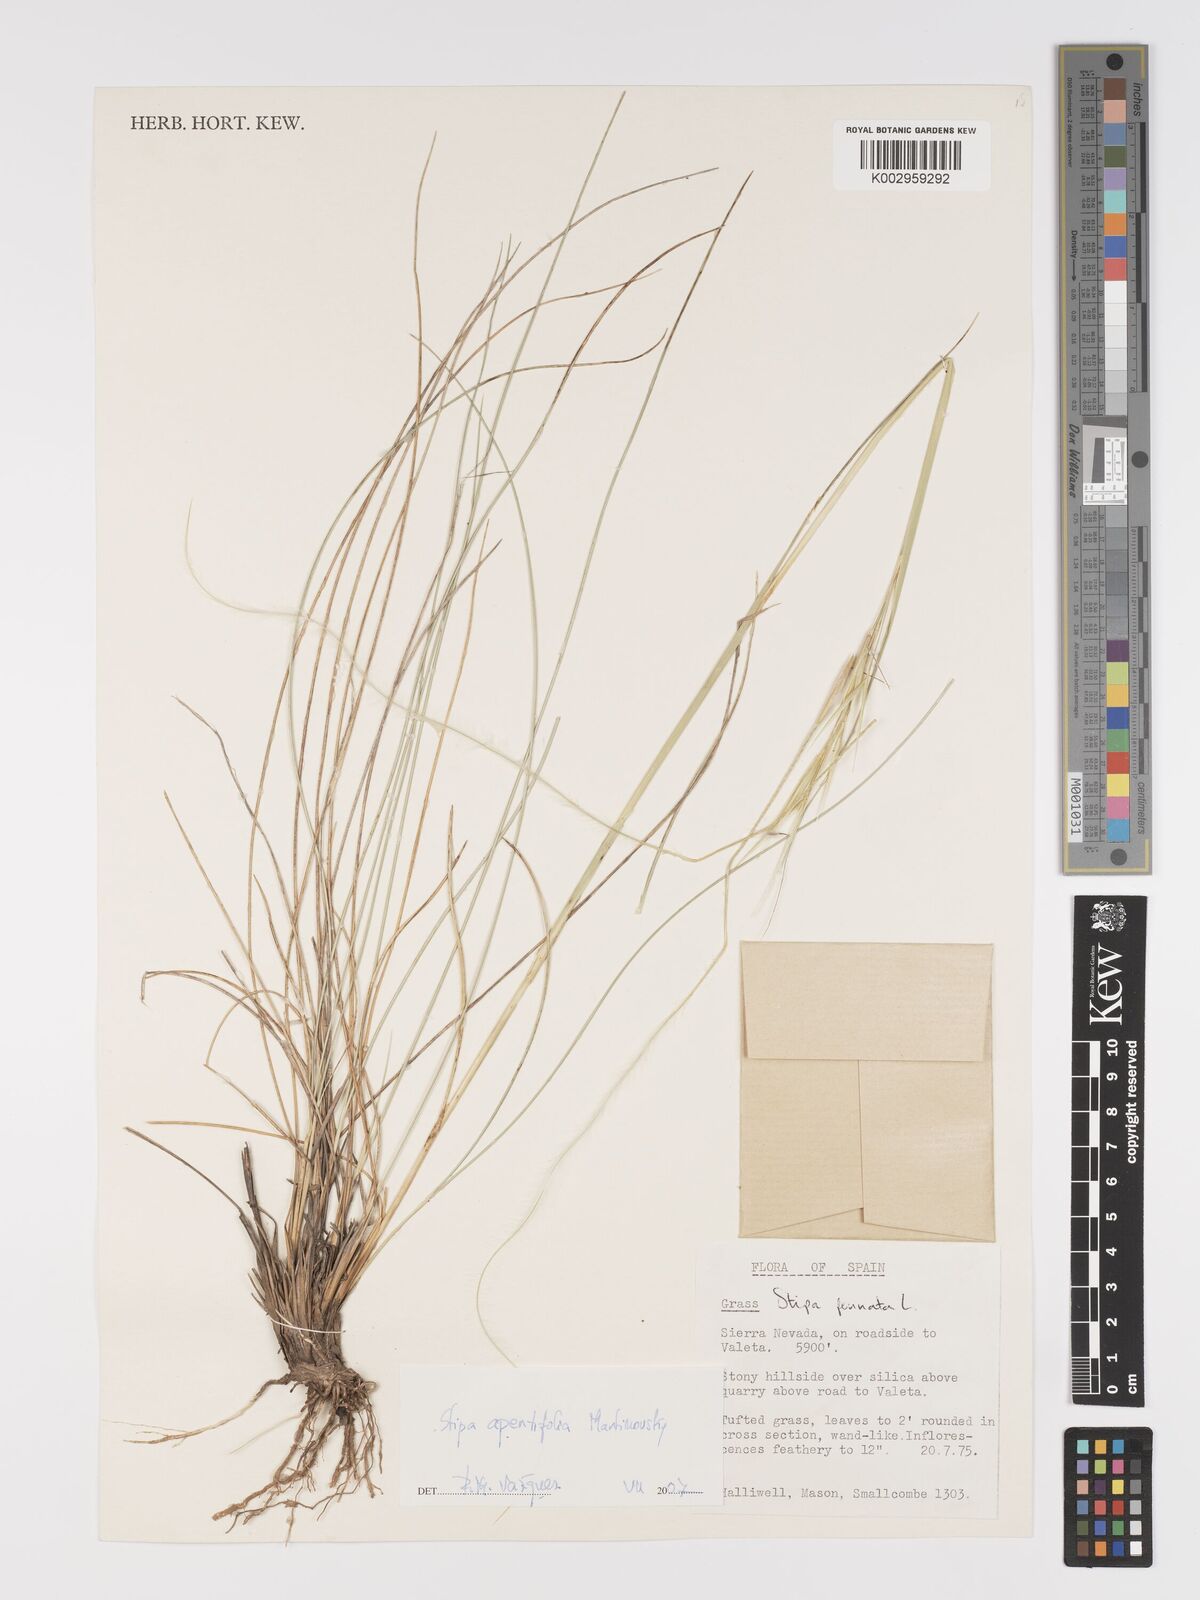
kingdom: Plantae
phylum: Tracheophyta
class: Liliopsida
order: Poales
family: Poaceae
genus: Stipa
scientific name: Stipa apertifolia
